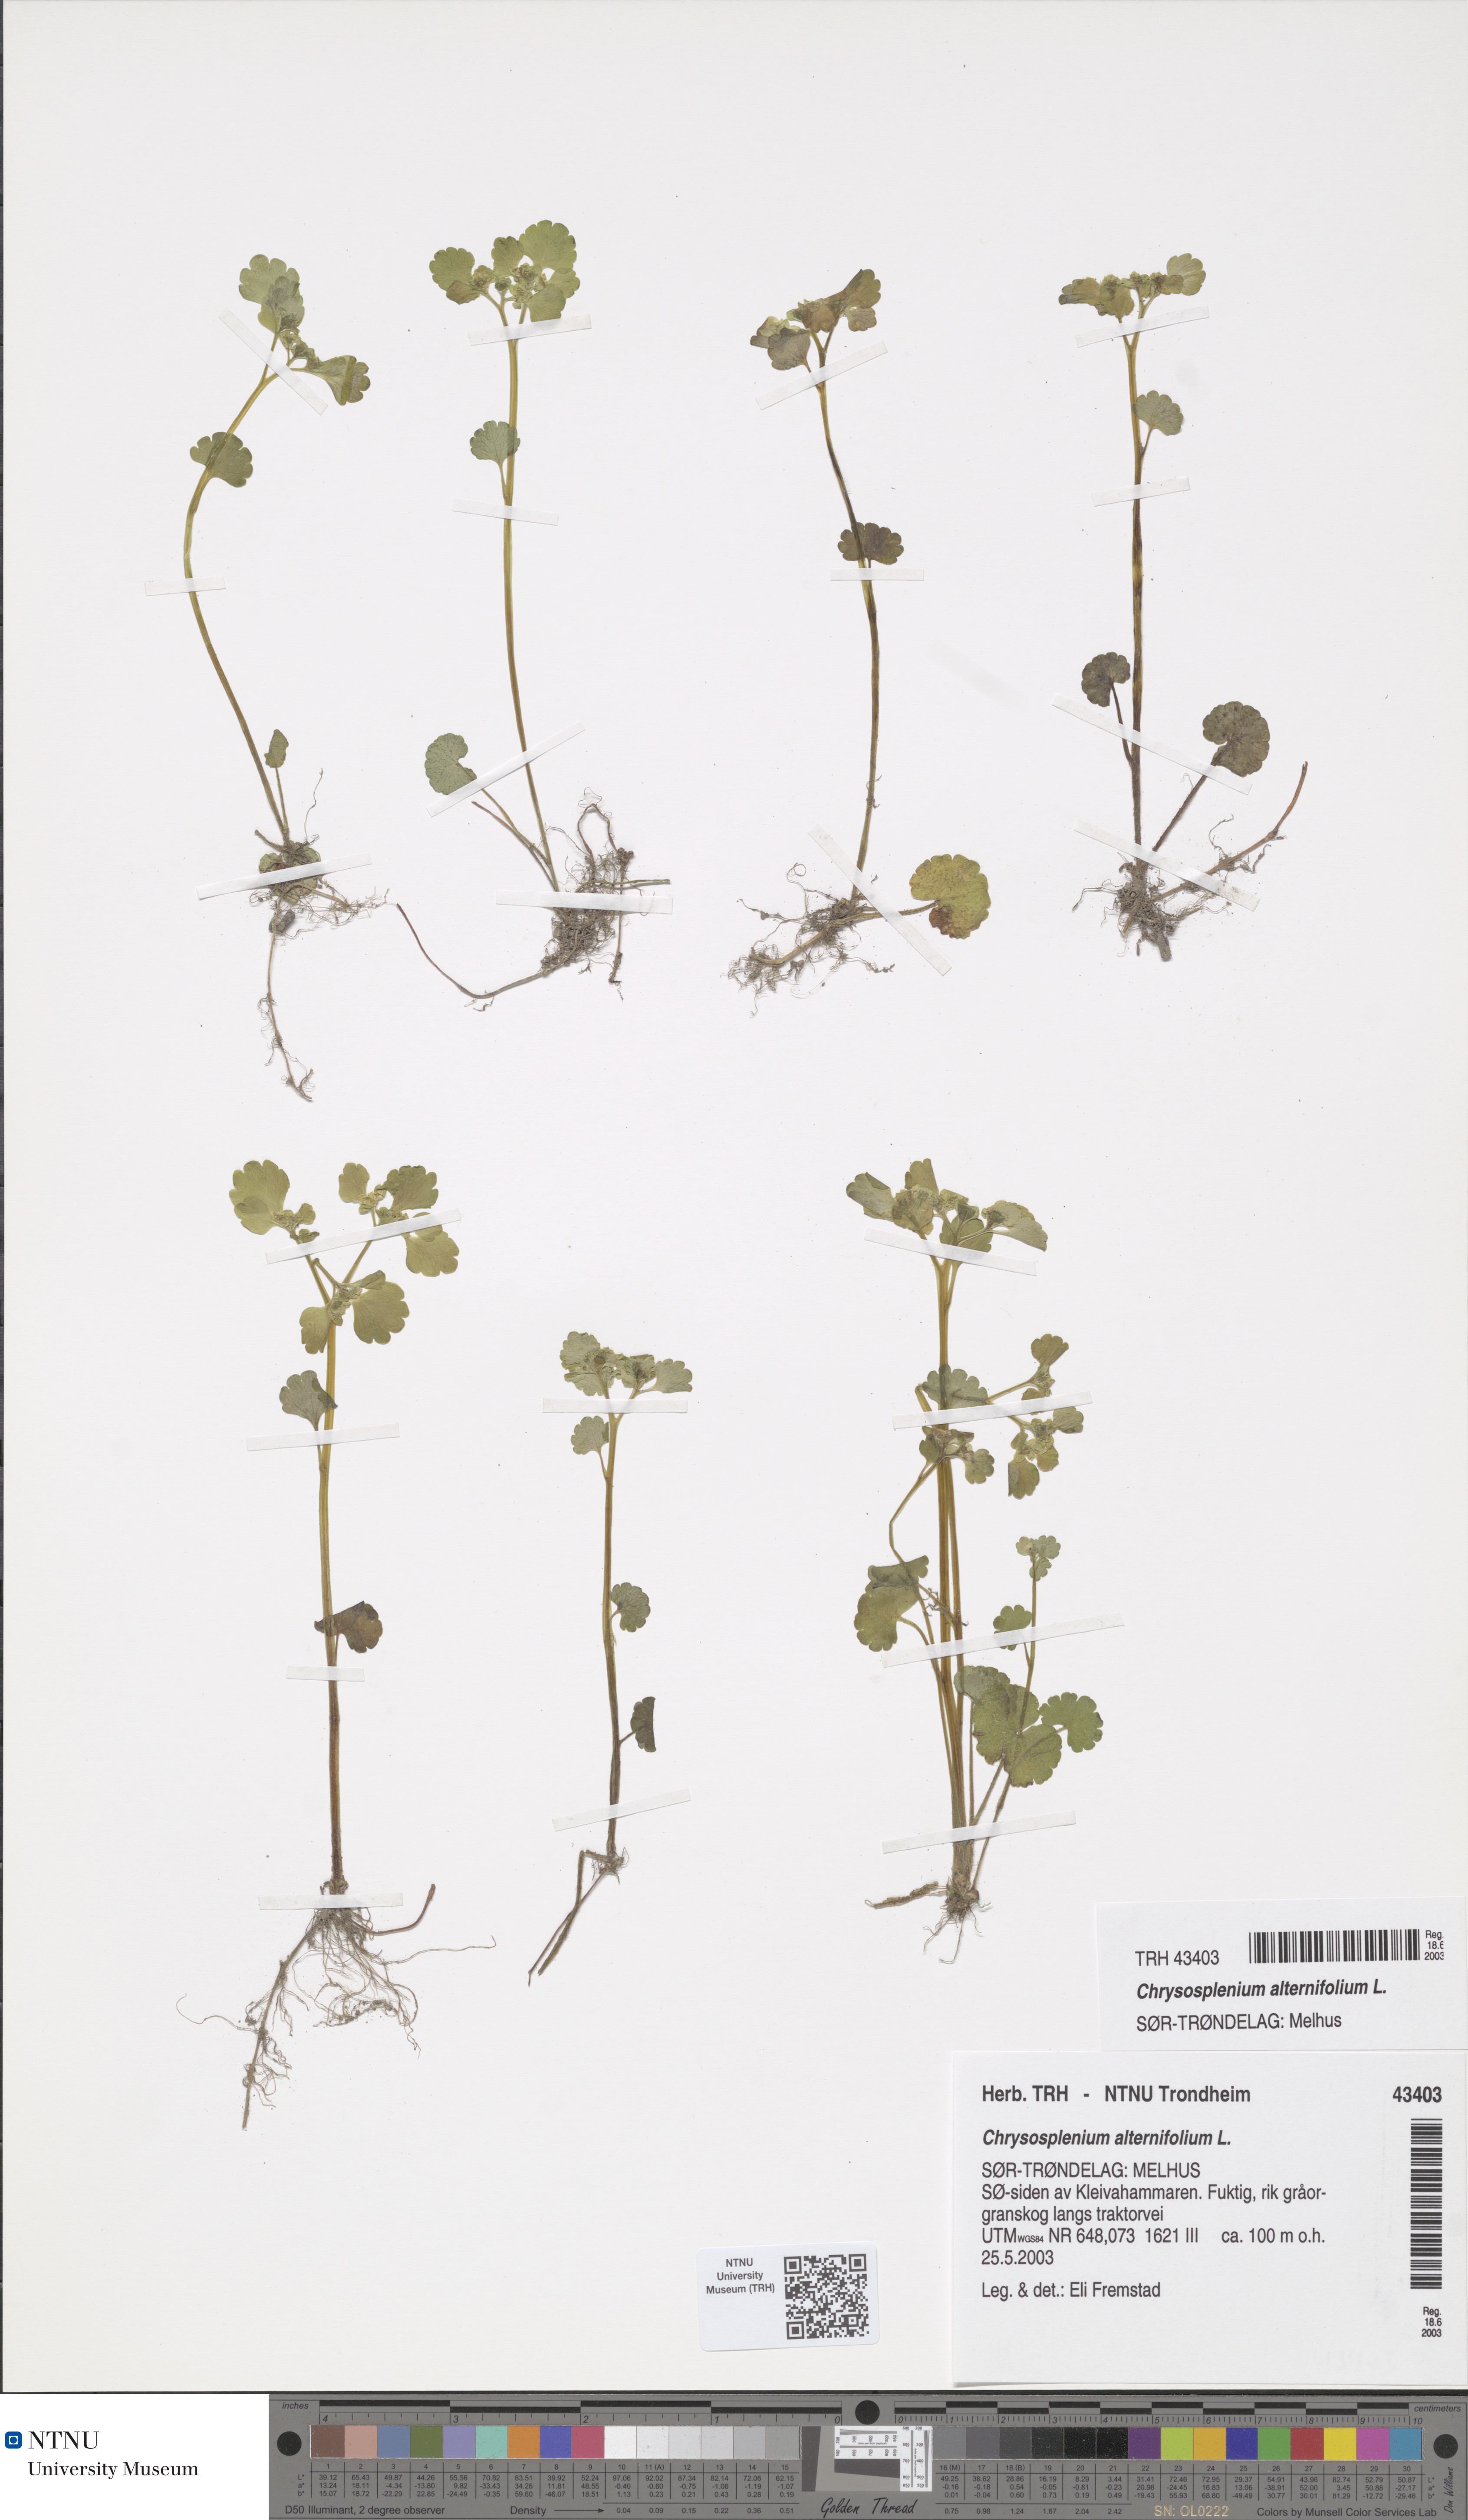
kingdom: Plantae
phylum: Tracheophyta
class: Magnoliopsida
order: Saxifragales
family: Saxifragaceae
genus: Chrysosplenium
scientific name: Chrysosplenium alternifolium
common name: Alternate-leaved golden-saxifrage
